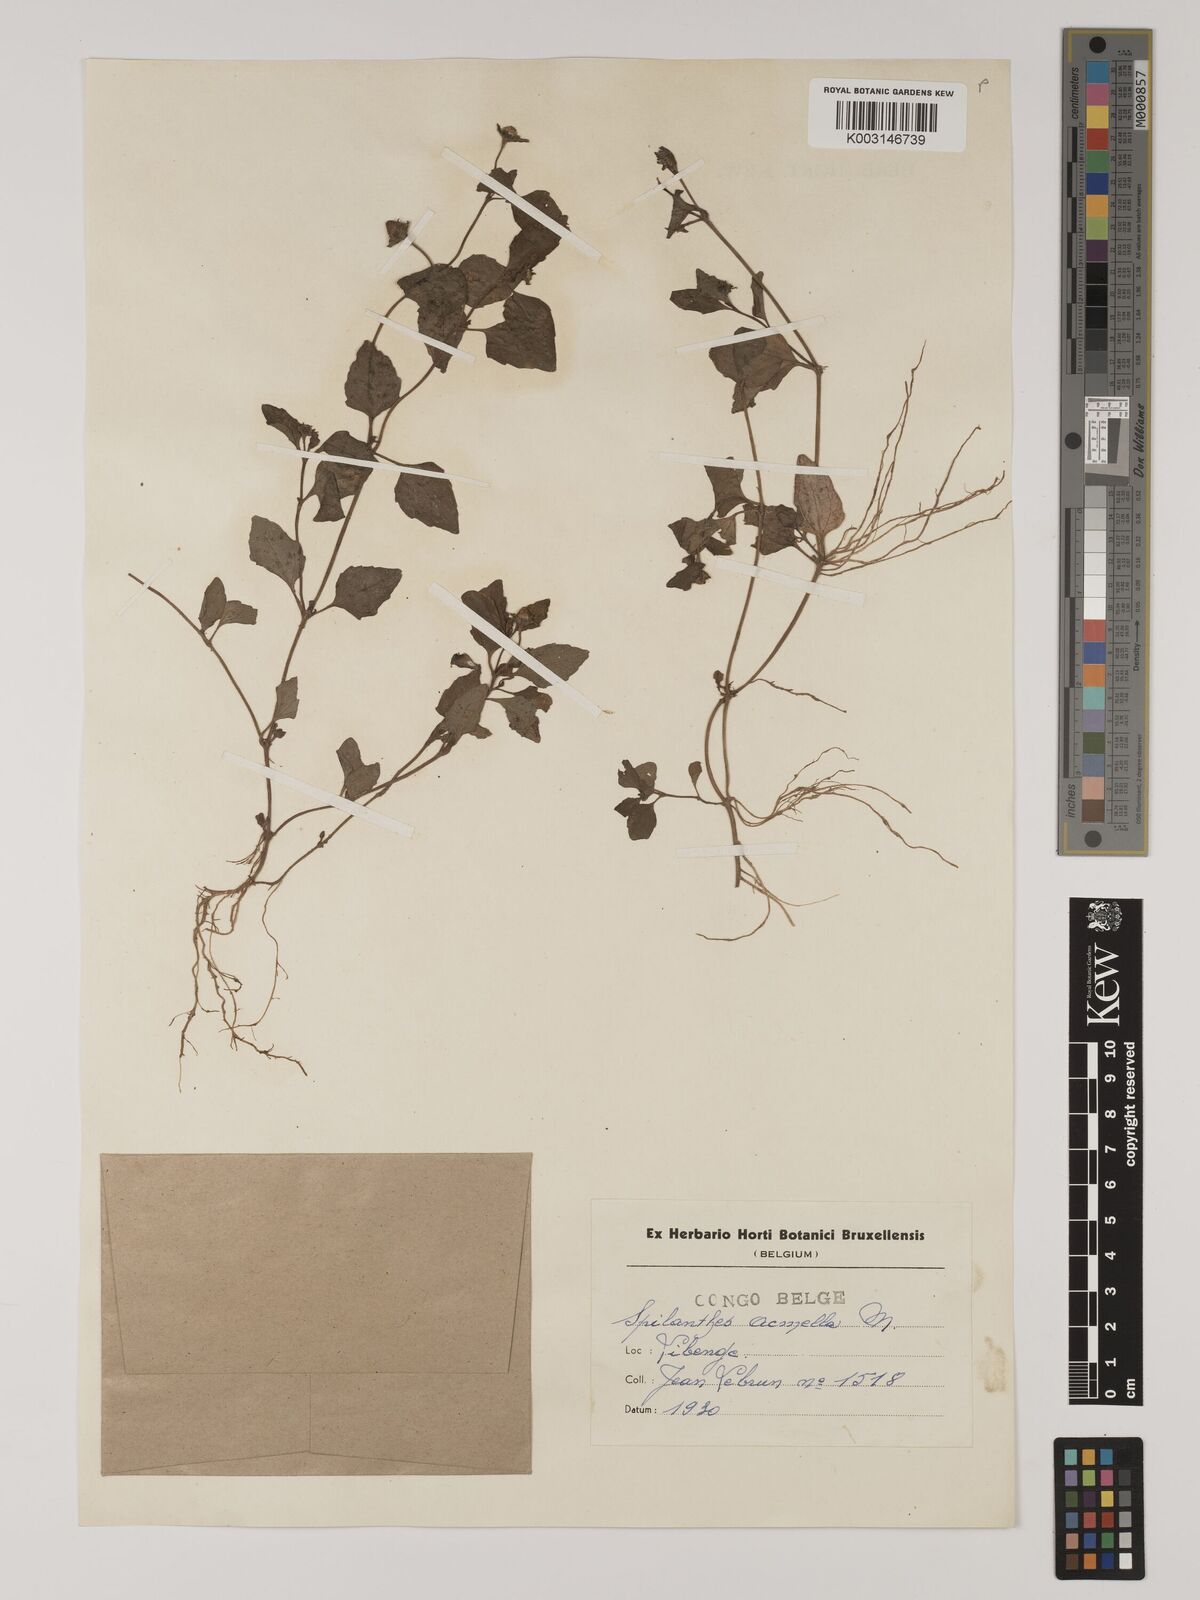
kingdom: Plantae
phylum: Tracheophyta
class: Magnoliopsida
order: Asterales
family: Asteraceae
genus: Blainvillea
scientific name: Blainvillea acmella
